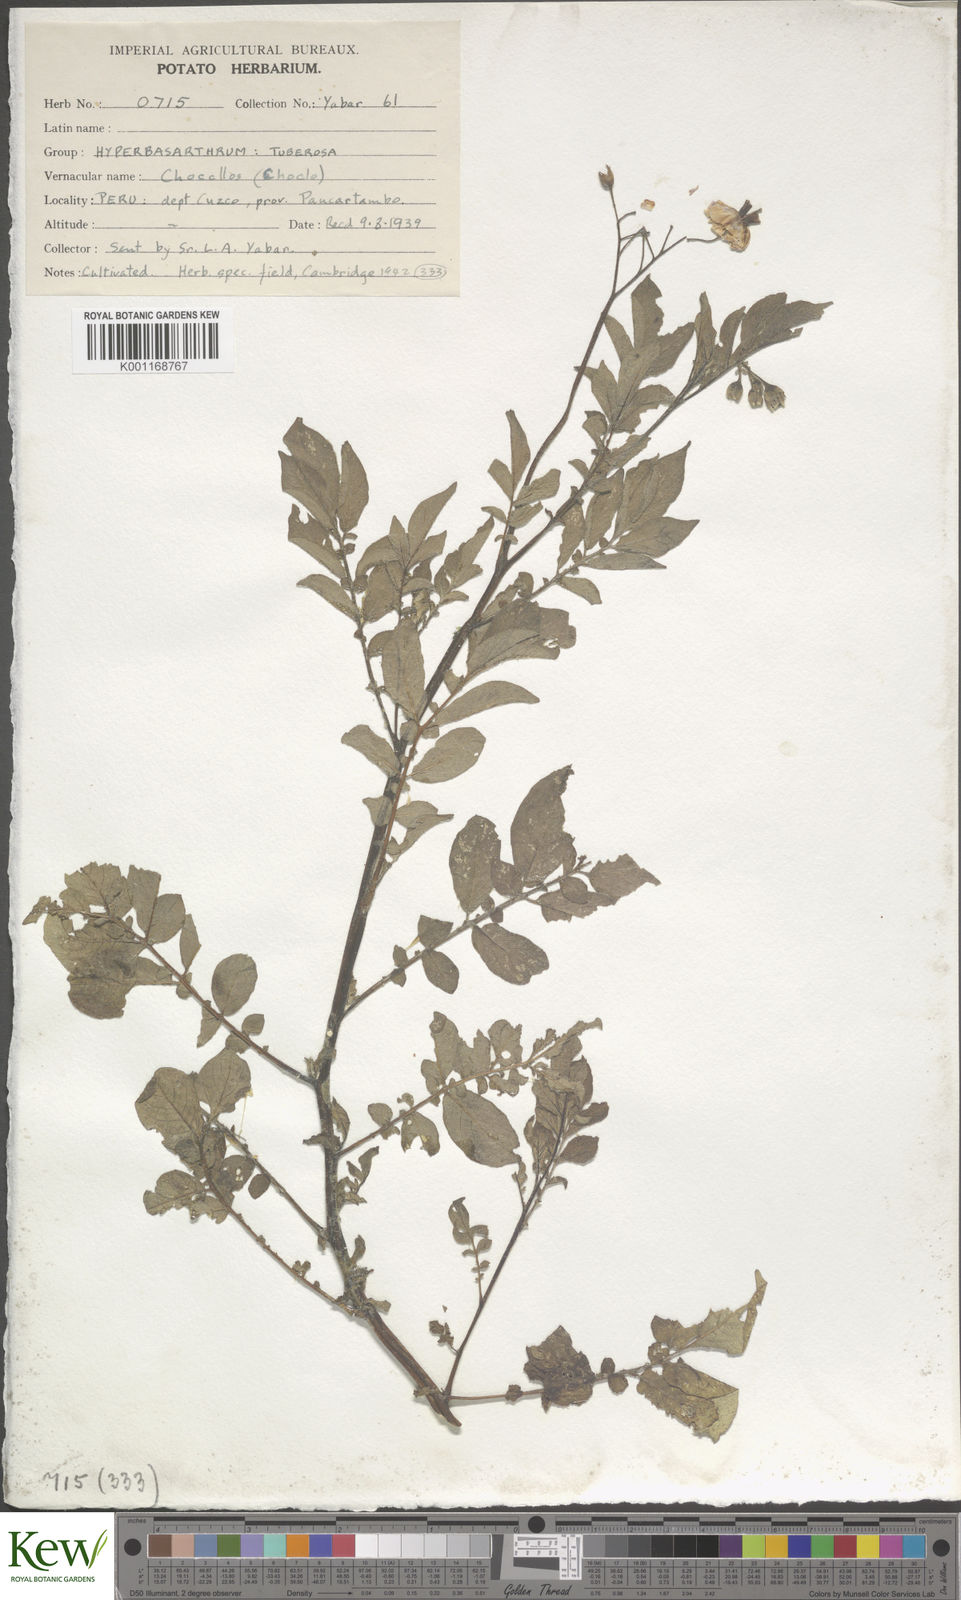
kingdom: Plantae
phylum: Tracheophyta
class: Magnoliopsida
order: Solanales
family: Solanaceae
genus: Solanum
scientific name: Solanum chaucha
